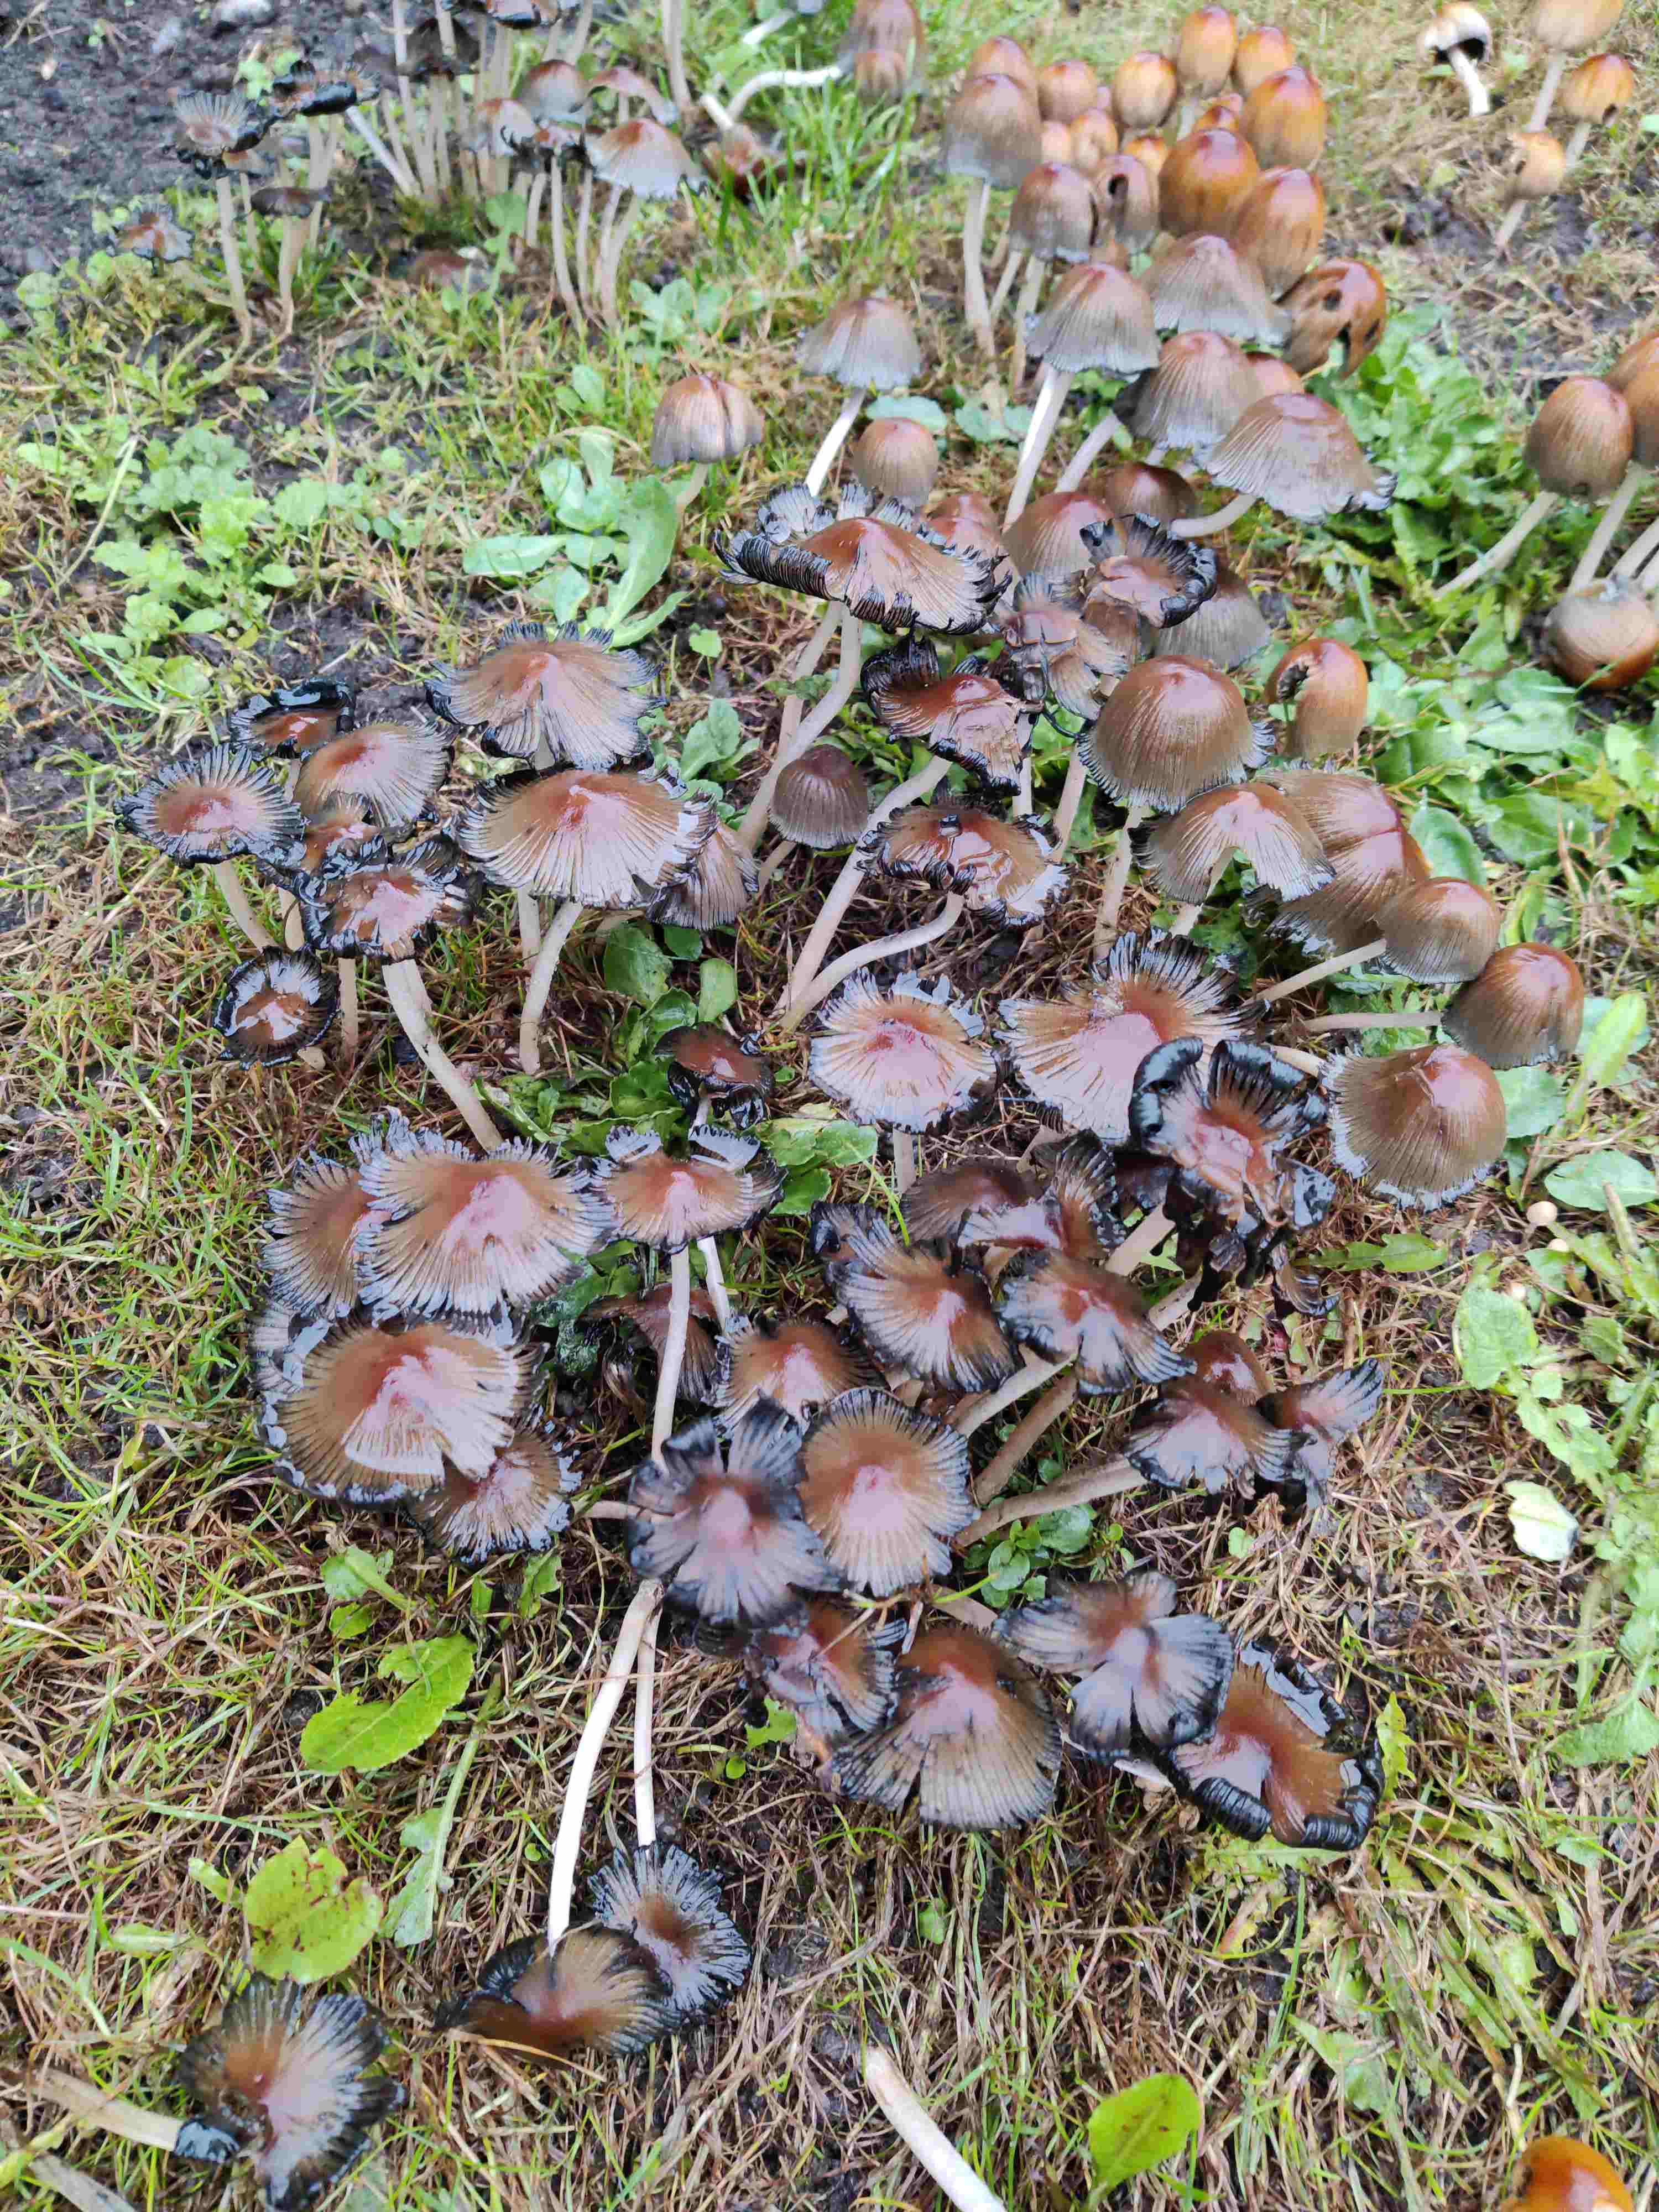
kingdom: Fungi
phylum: Basidiomycota
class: Agaricomycetes
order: Agaricales
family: Psathyrellaceae
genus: Coprinellus
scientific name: Coprinellus micaceus
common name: glimmer-blækhat
